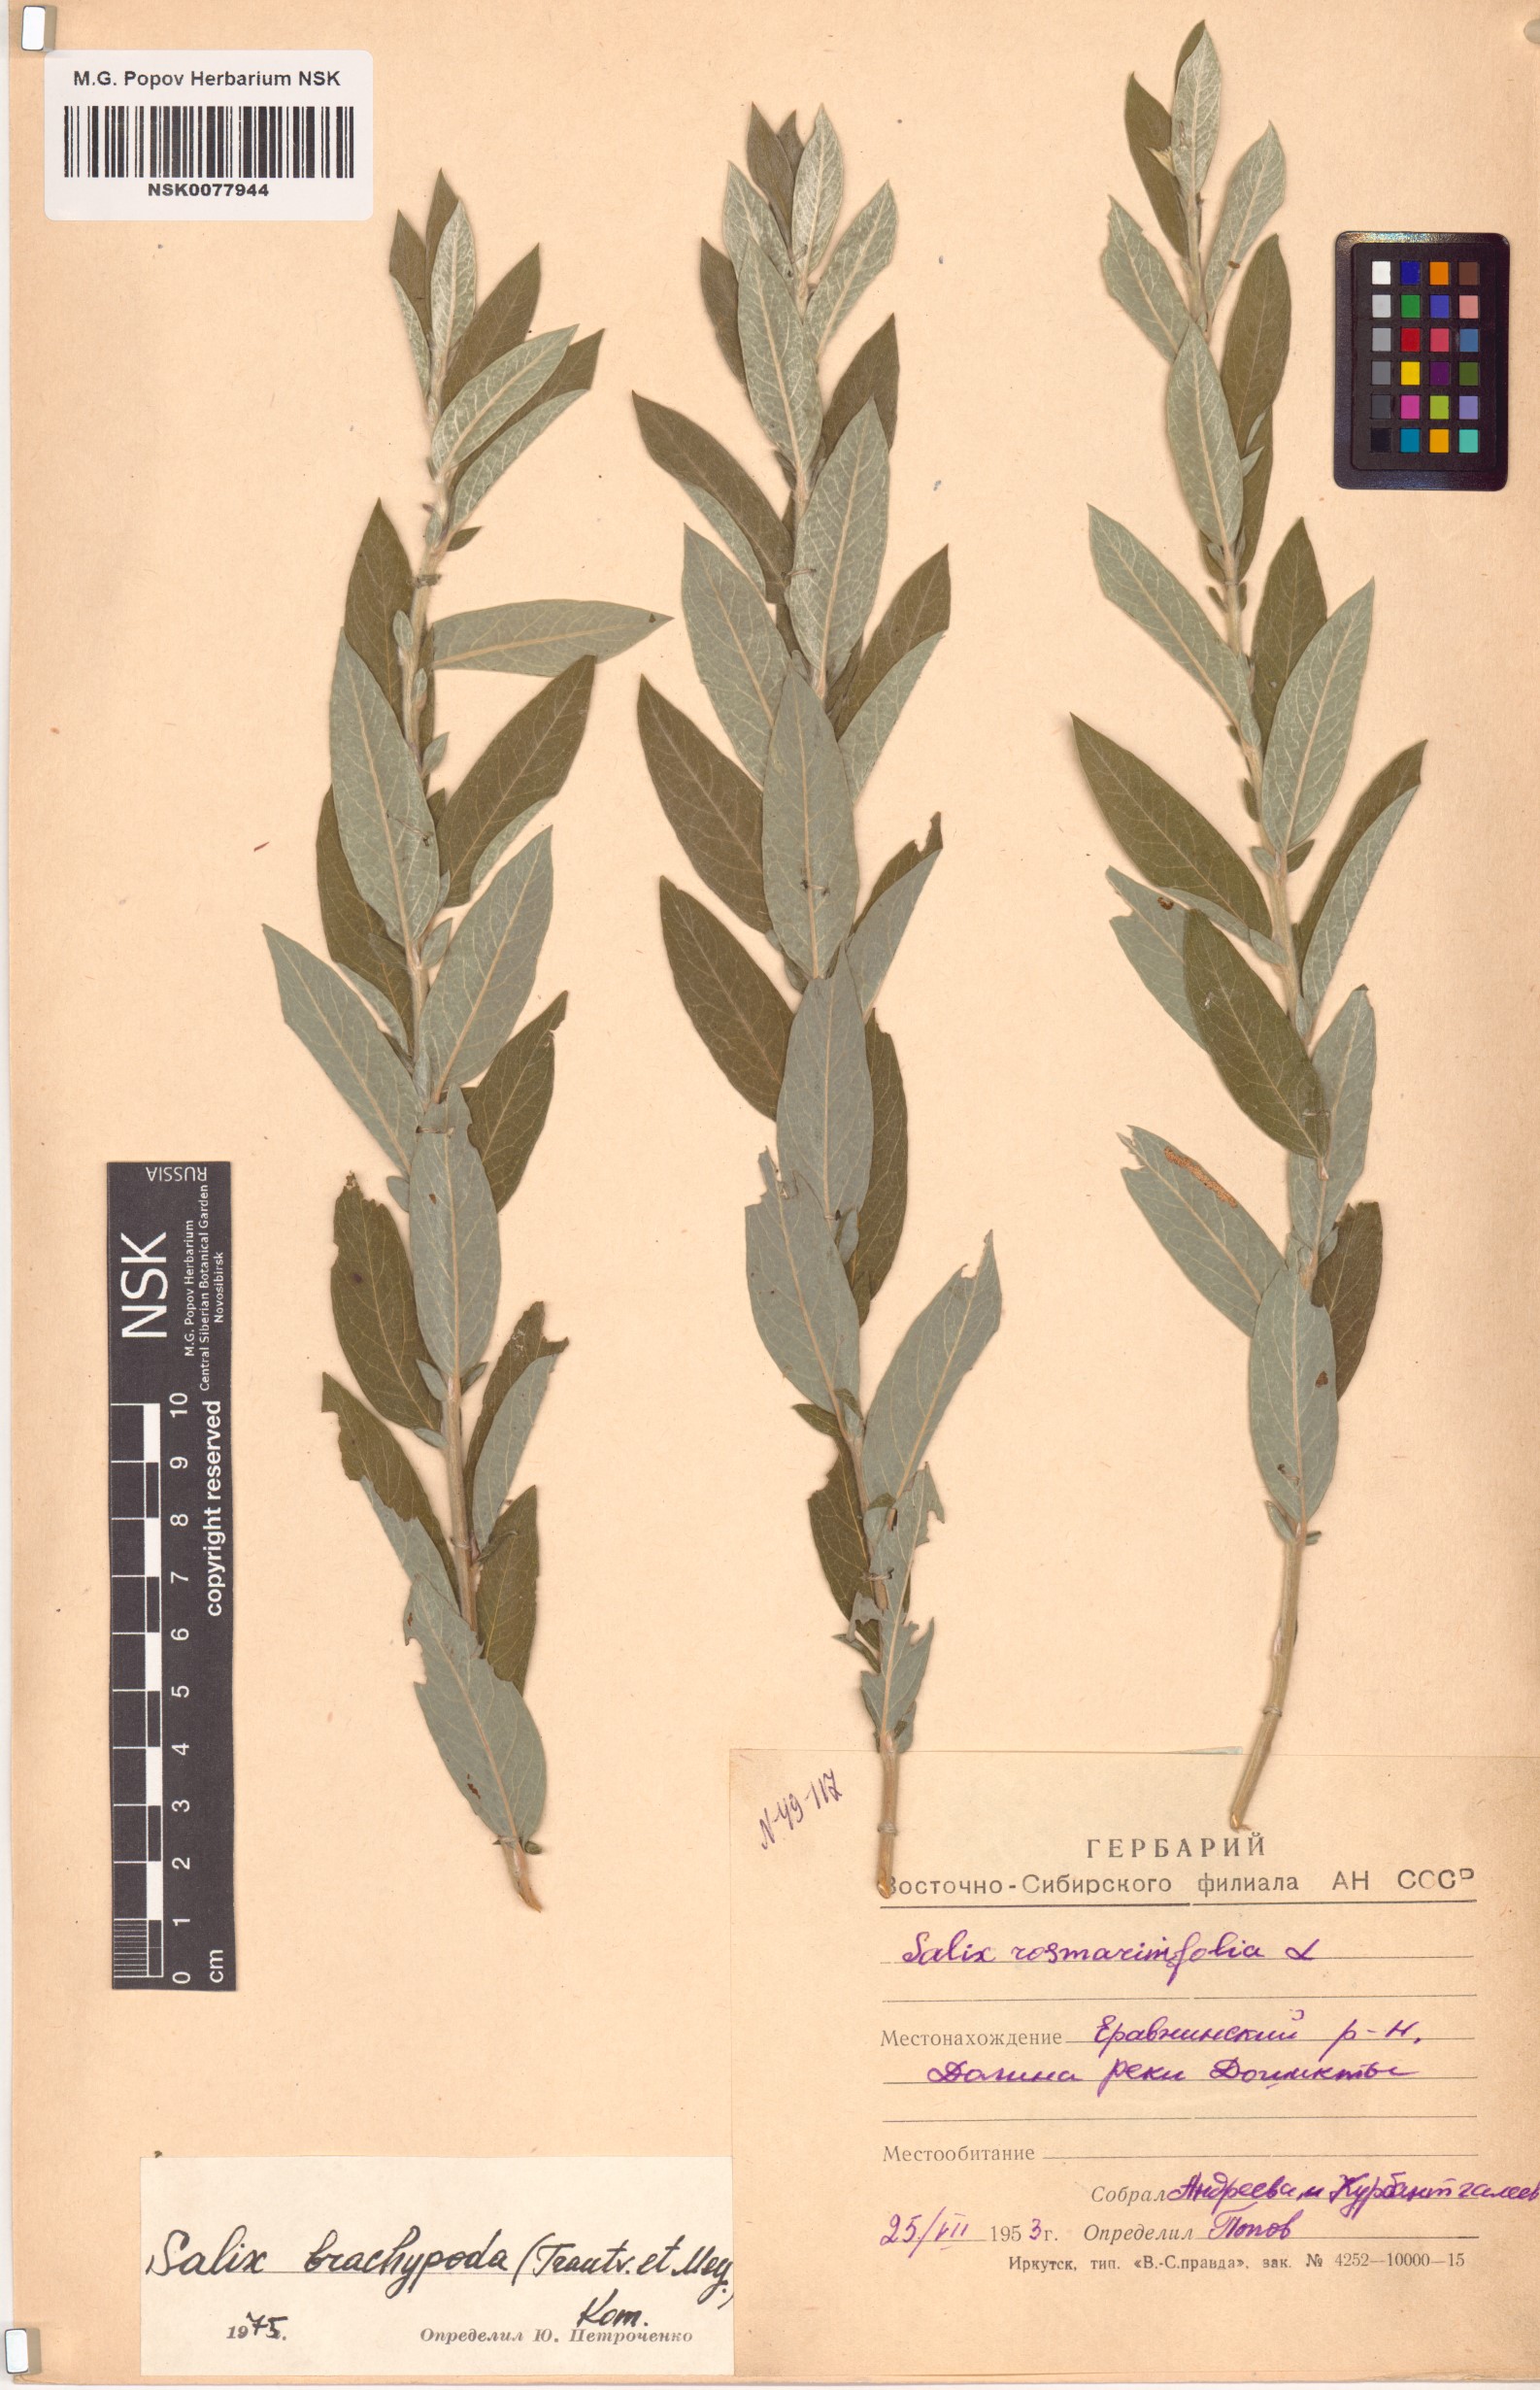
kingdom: Plantae
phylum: Tracheophyta
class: Magnoliopsida
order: Malpighiales
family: Salicaceae
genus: Salix
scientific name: Salix brachypoda
